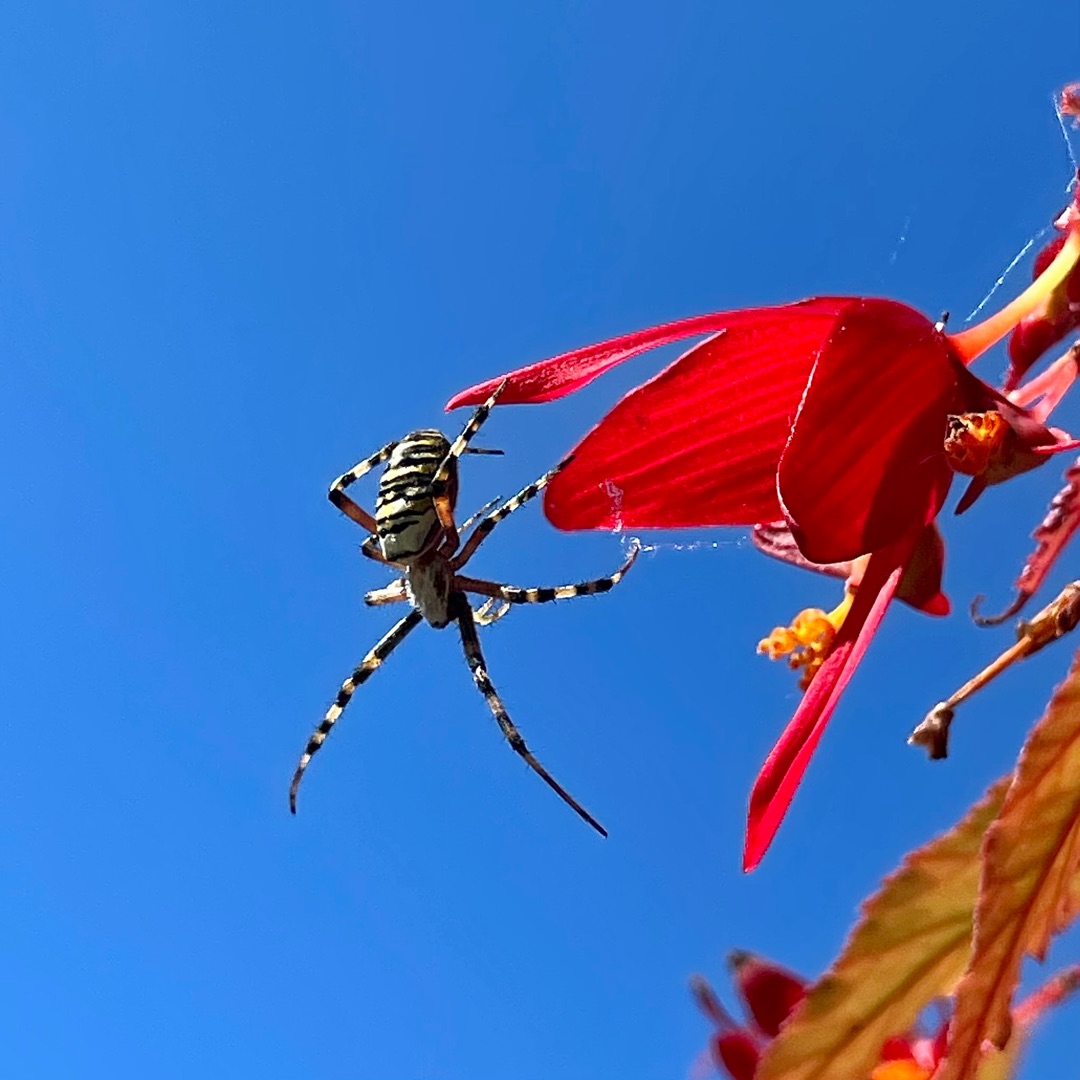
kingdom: Animalia
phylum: Arthropoda
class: Arachnida
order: Araneae
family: Araneidae
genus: Argiope
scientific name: Argiope bruennichi
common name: Hvepseedderkop
